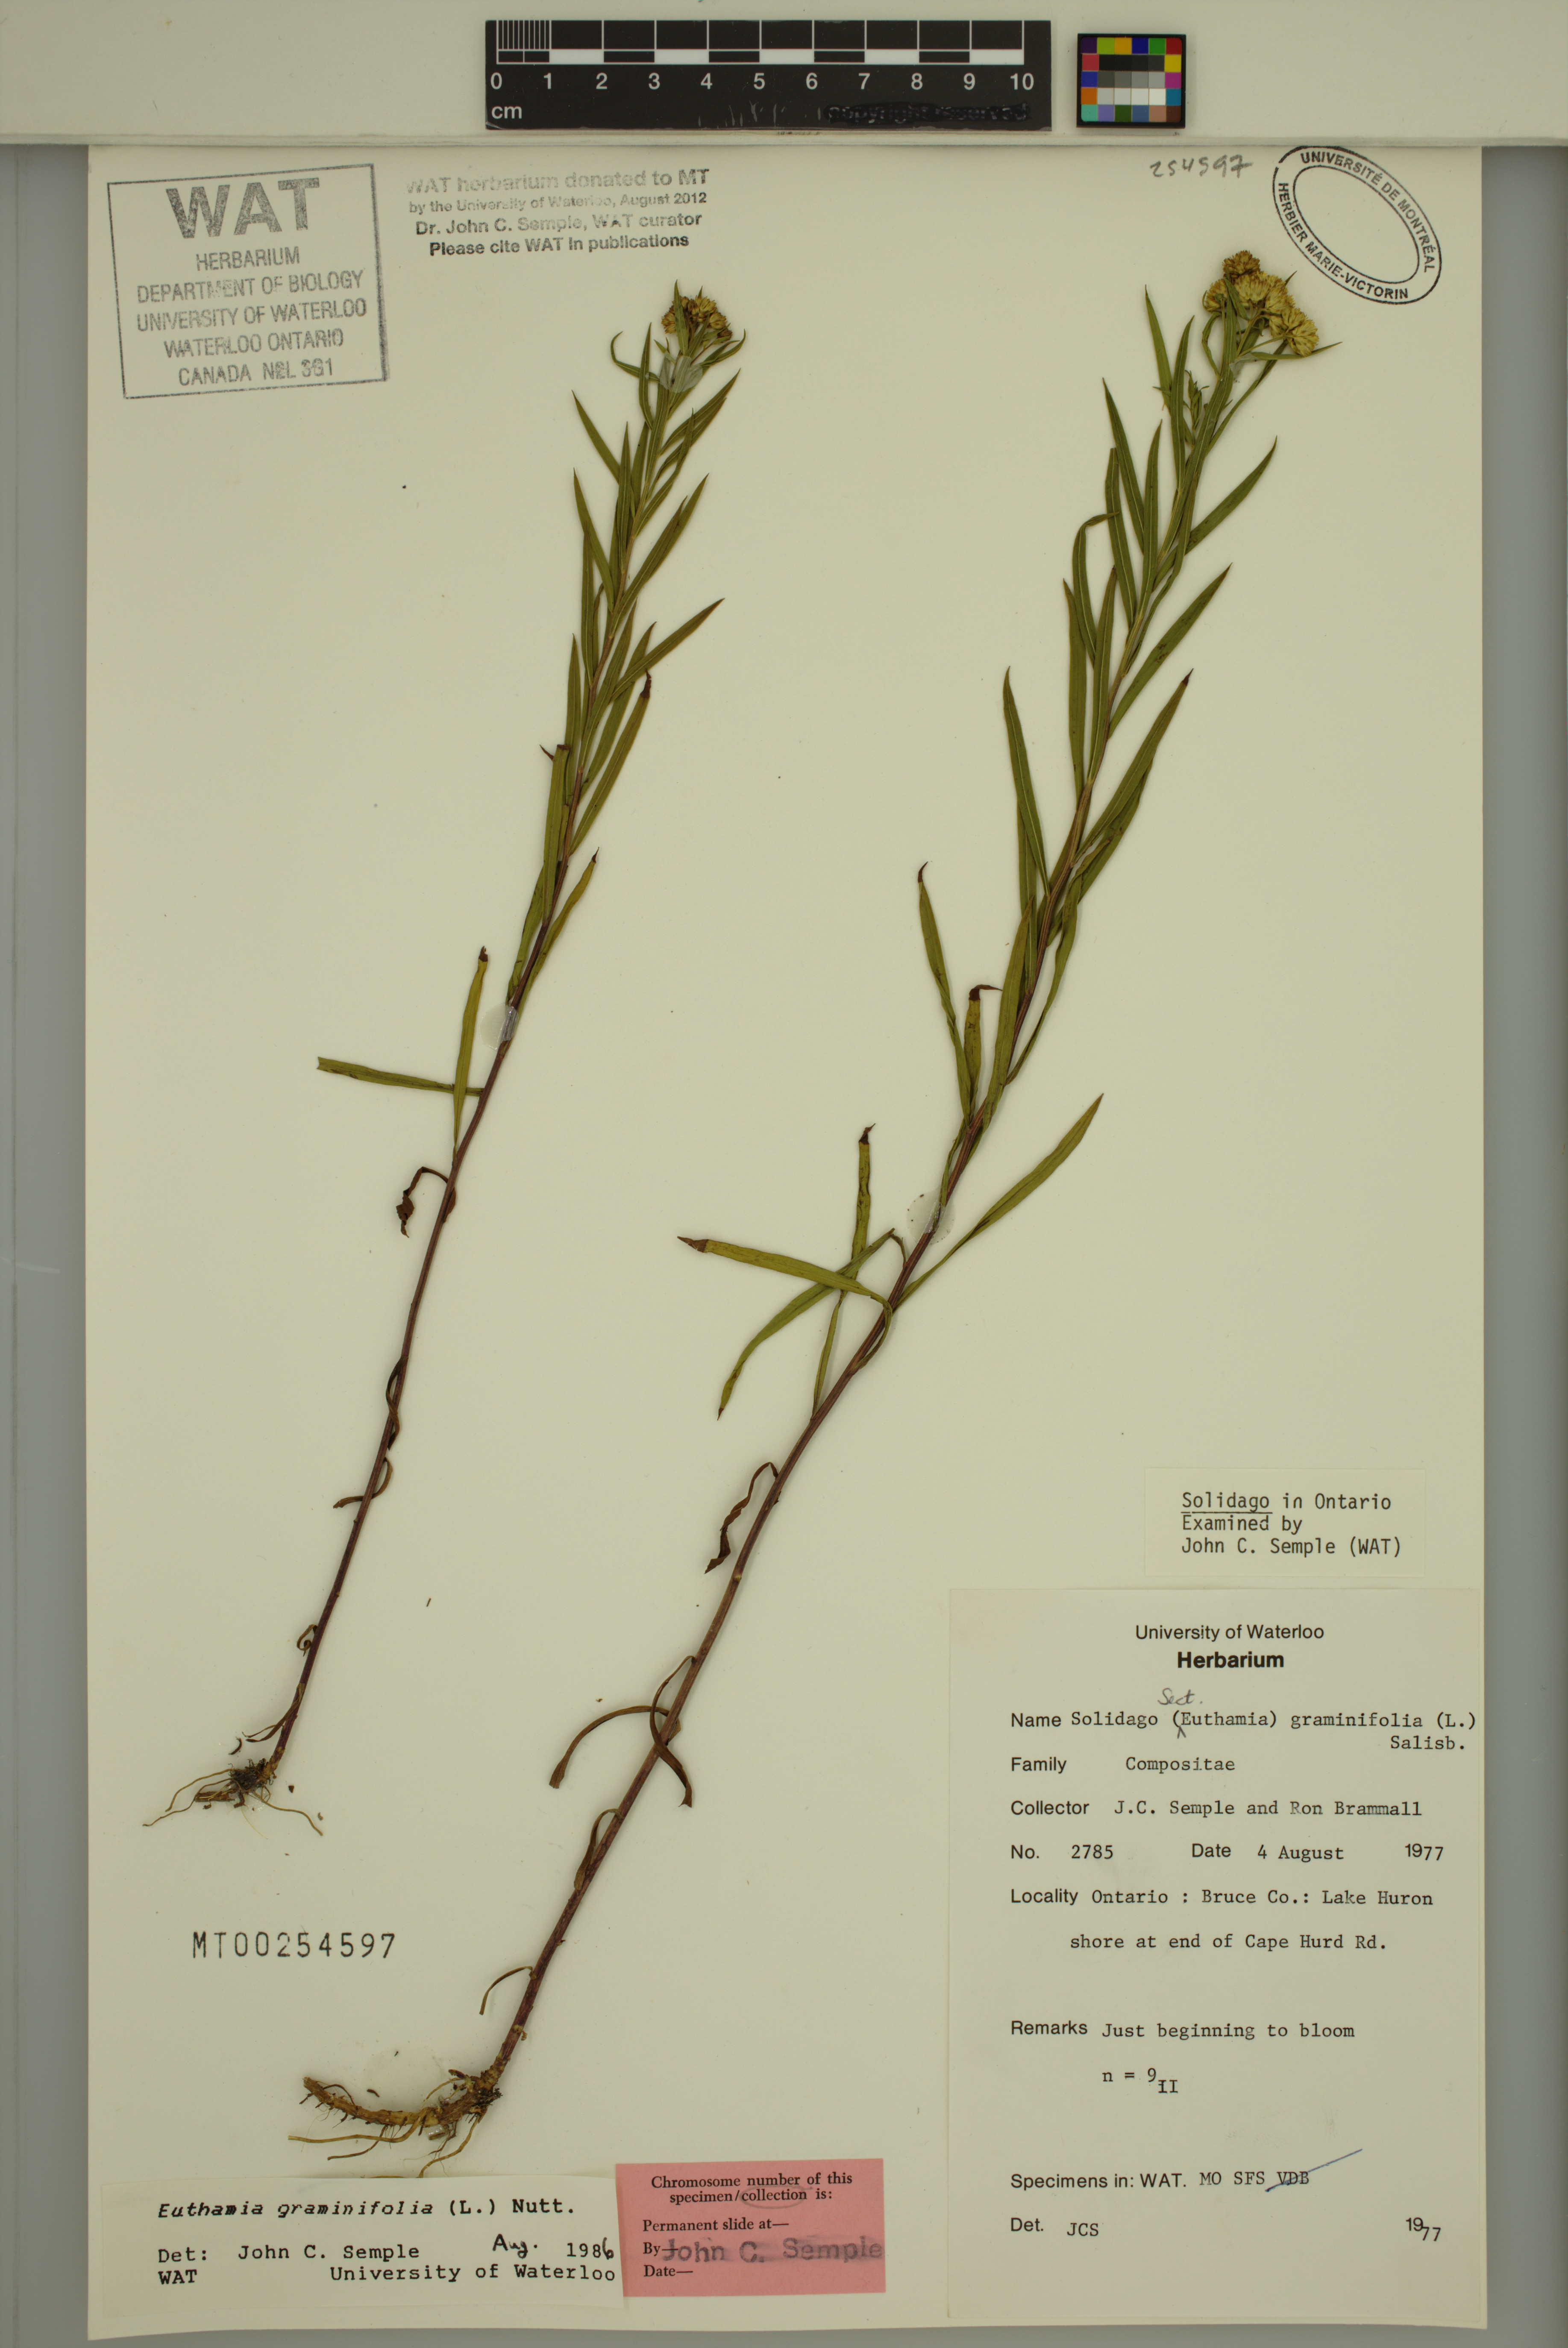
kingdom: Plantae
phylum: Tracheophyta
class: Magnoliopsida
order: Asterales
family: Asteraceae
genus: Euthamia
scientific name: Euthamia graminifolia
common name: Common goldentop
